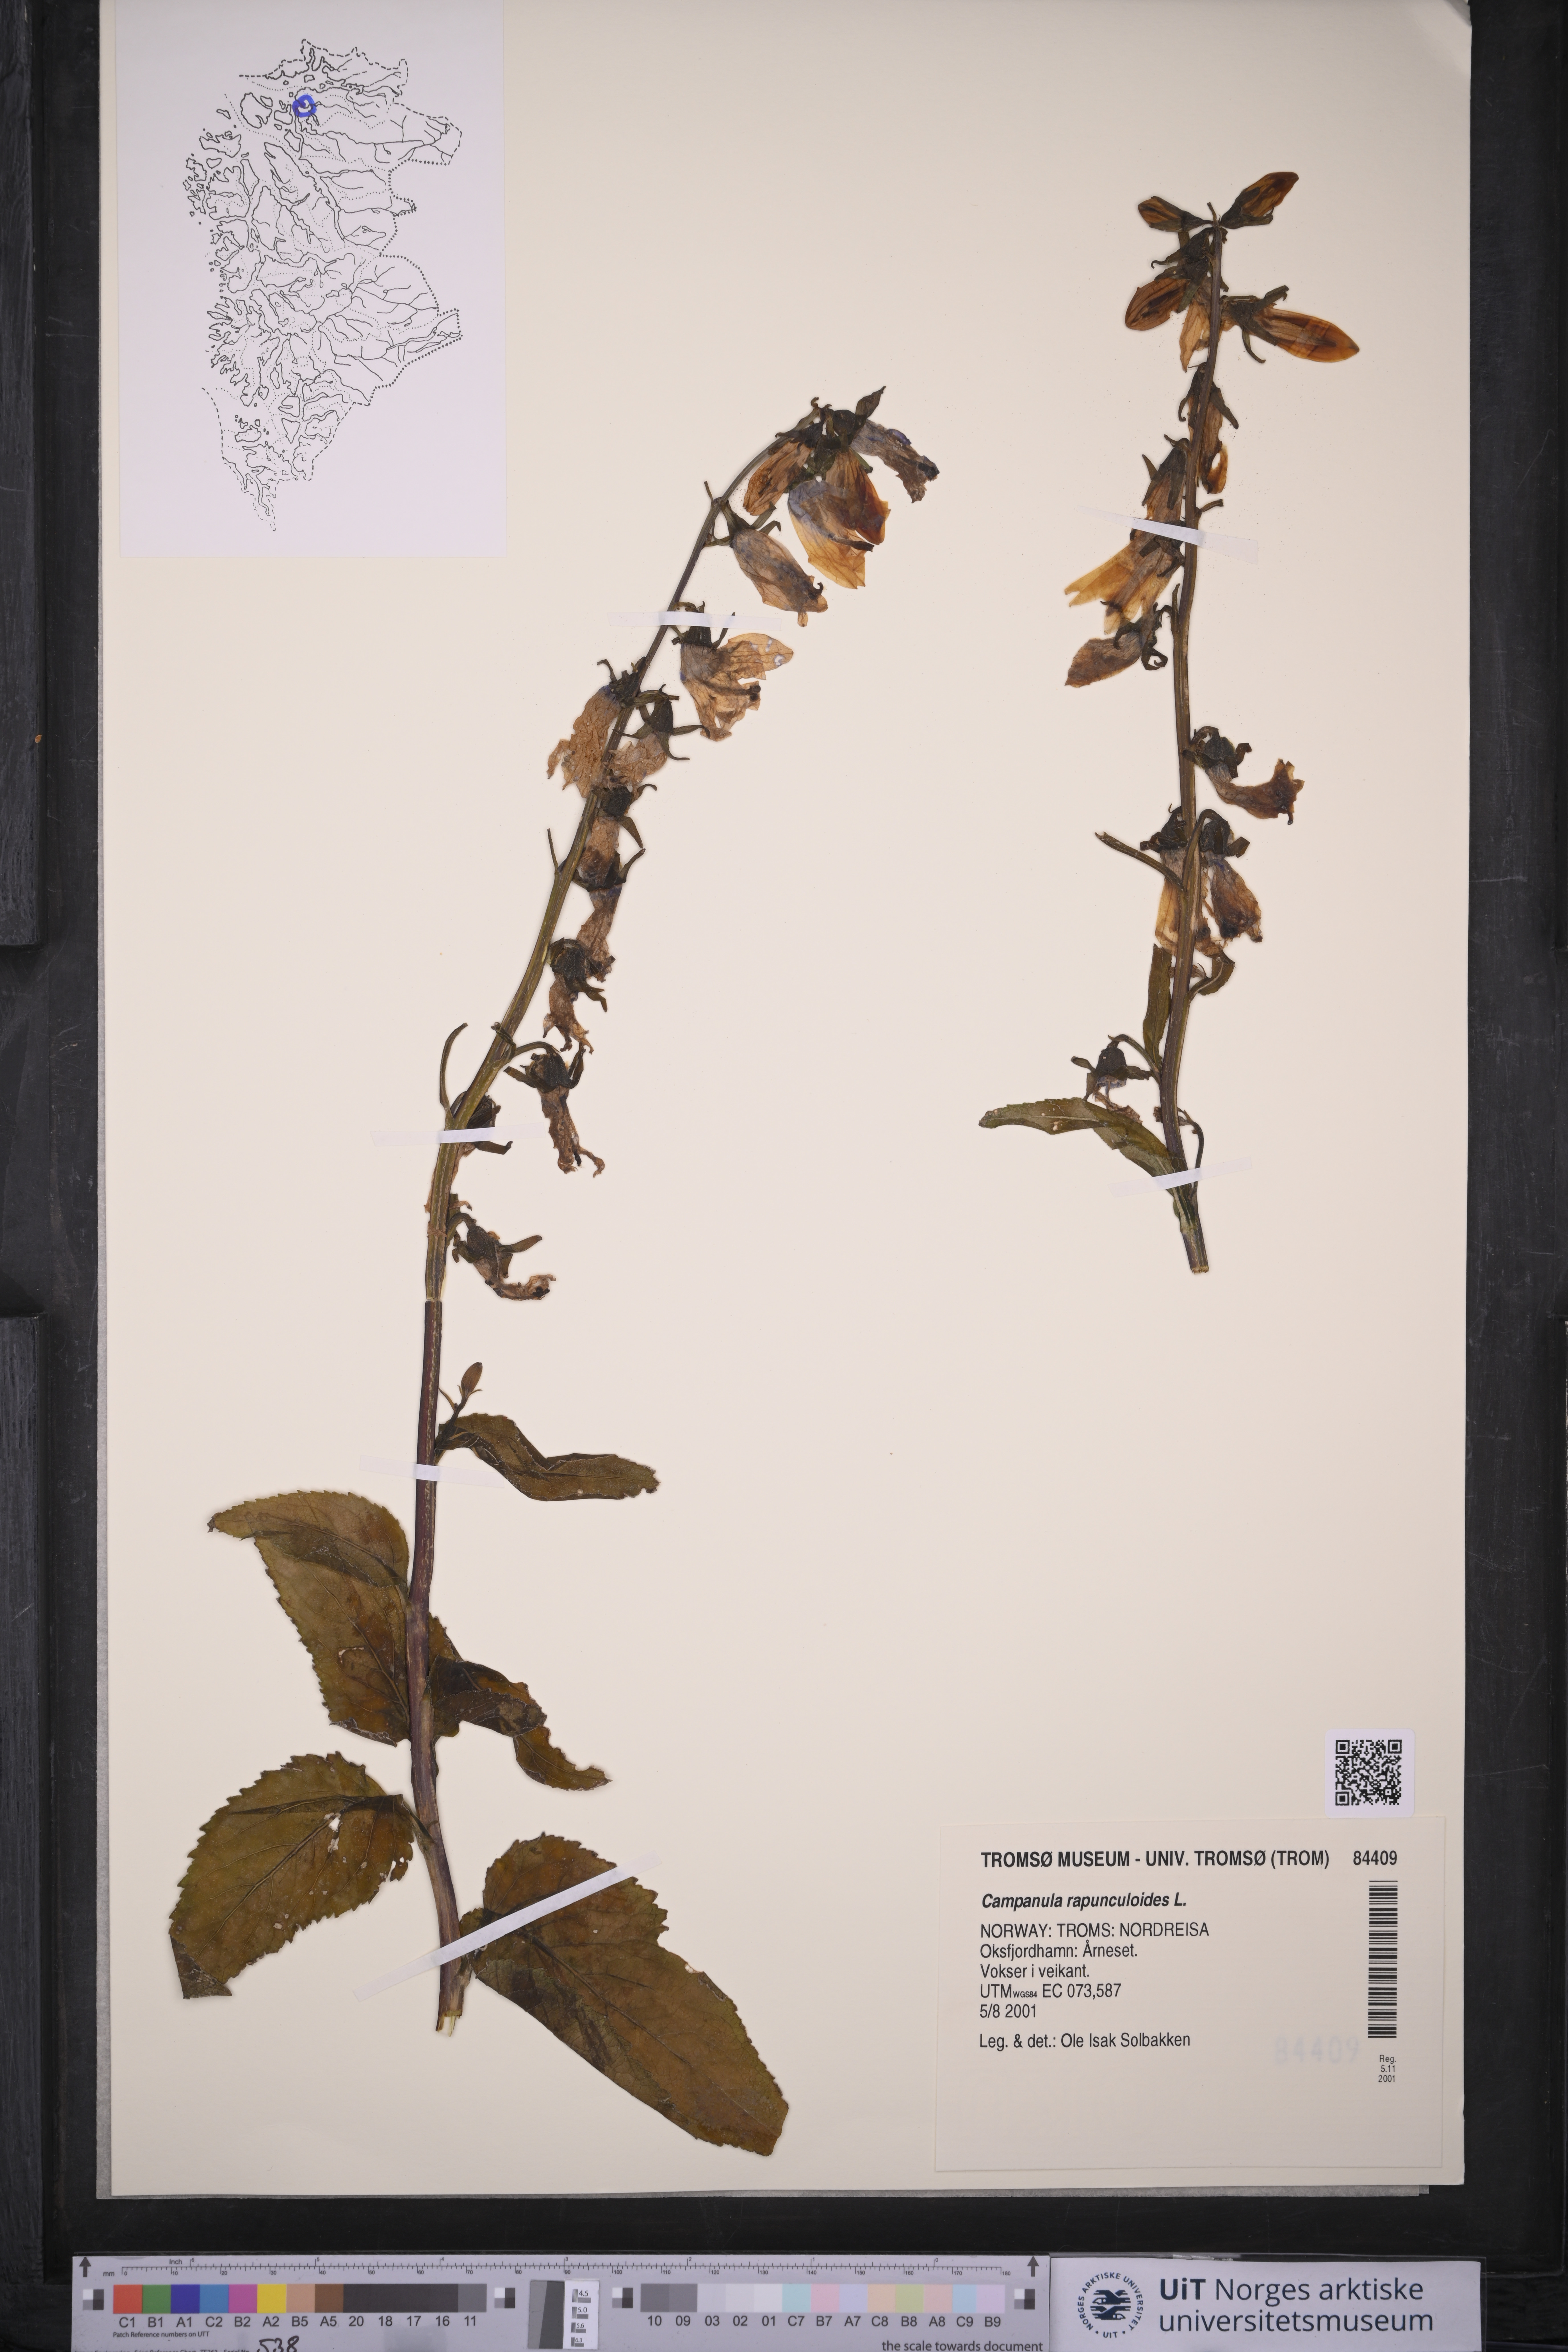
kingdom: Plantae
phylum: Tracheophyta
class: Magnoliopsida
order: Asterales
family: Campanulaceae
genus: Campanula
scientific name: Campanula rapunculoides
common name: Creeping bellflower
